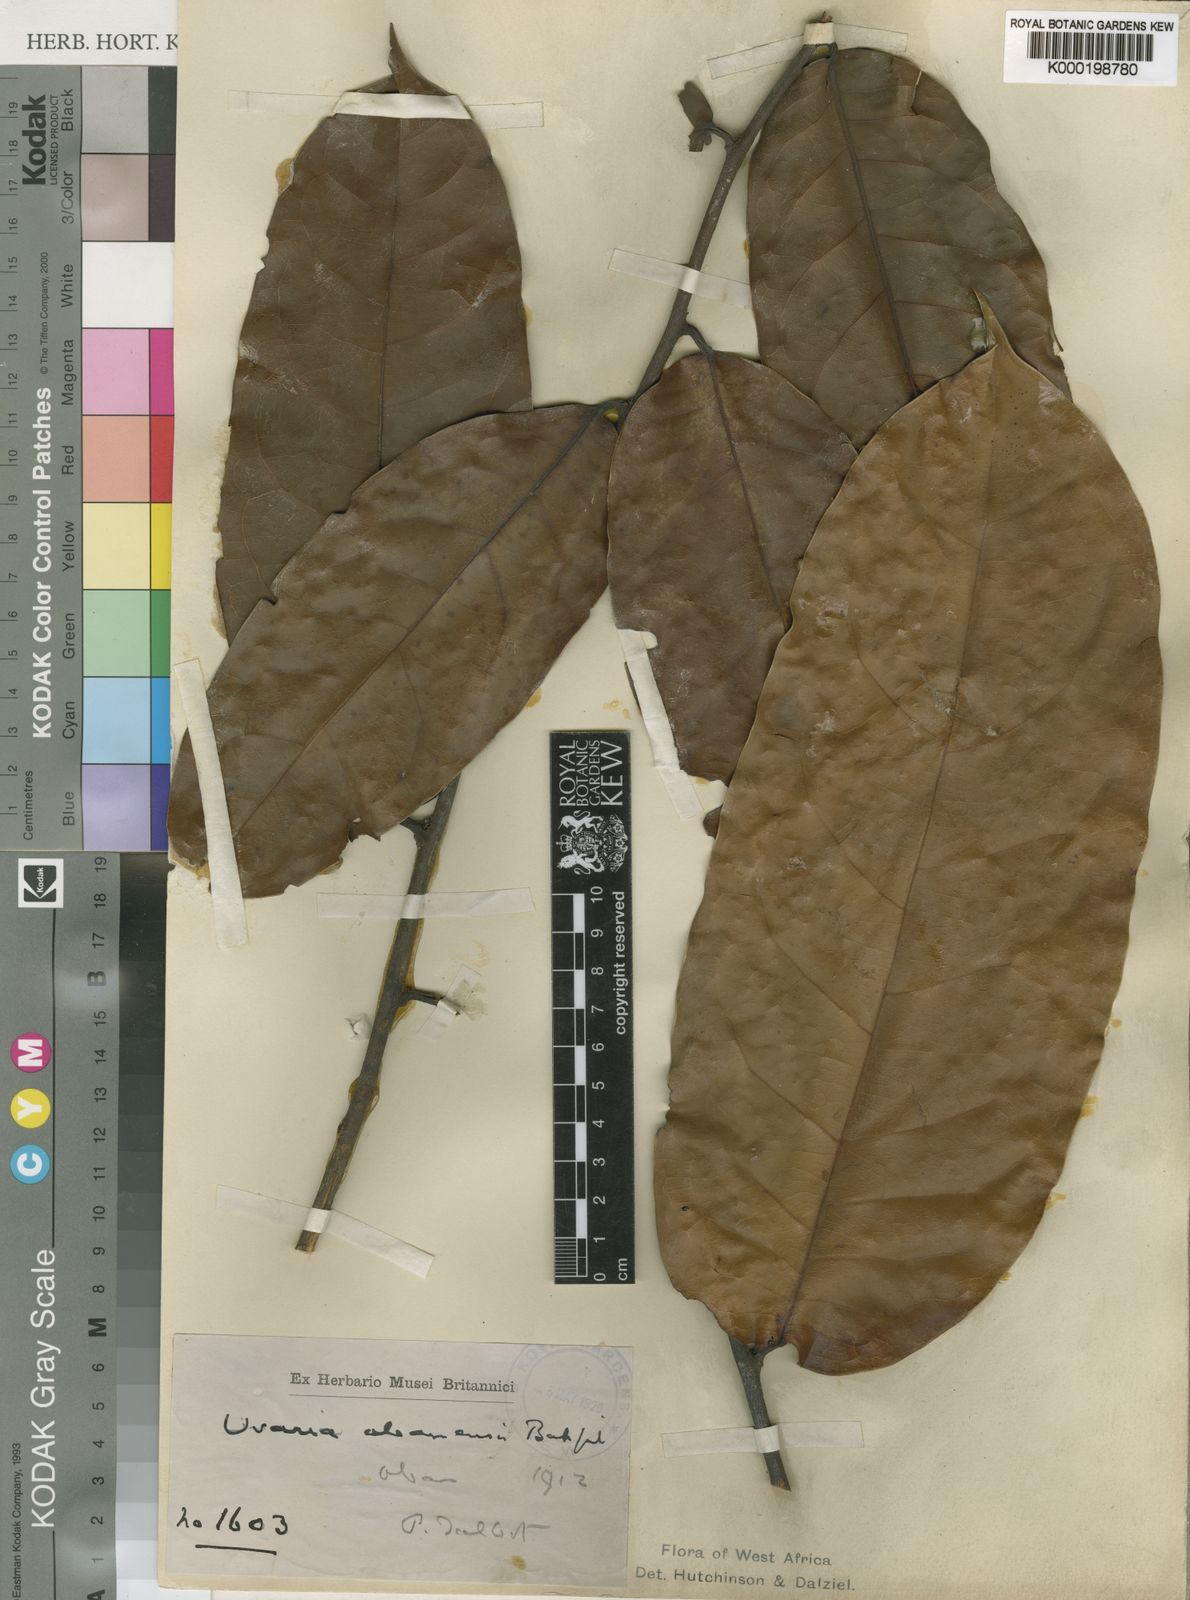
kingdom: Plantae
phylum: Tracheophyta
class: Magnoliopsida
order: Magnoliales
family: Annonaceae
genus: Uvaria
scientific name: Uvaria obanensis
